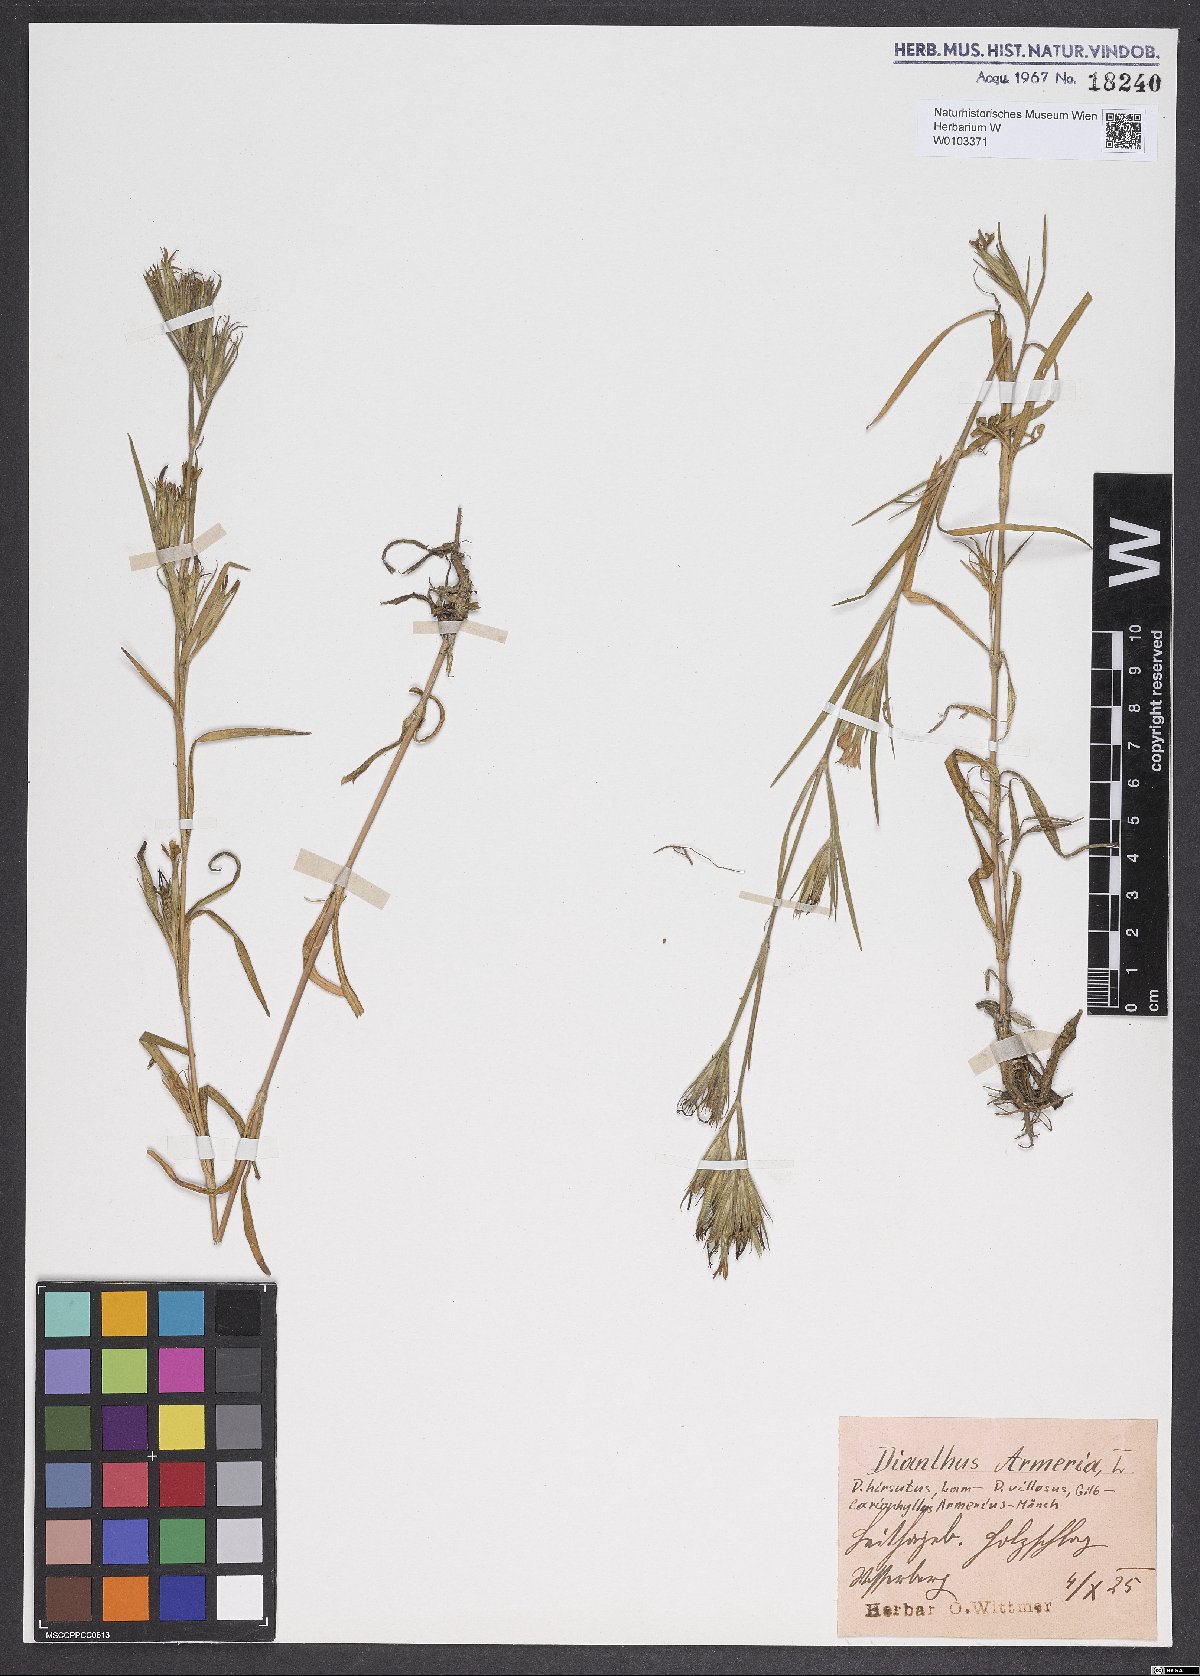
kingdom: Plantae
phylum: Tracheophyta
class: Magnoliopsida
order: Caryophyllales
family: Caryophyllaceae
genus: Dianthus
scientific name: Dianthus armeria
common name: Deptford pink
